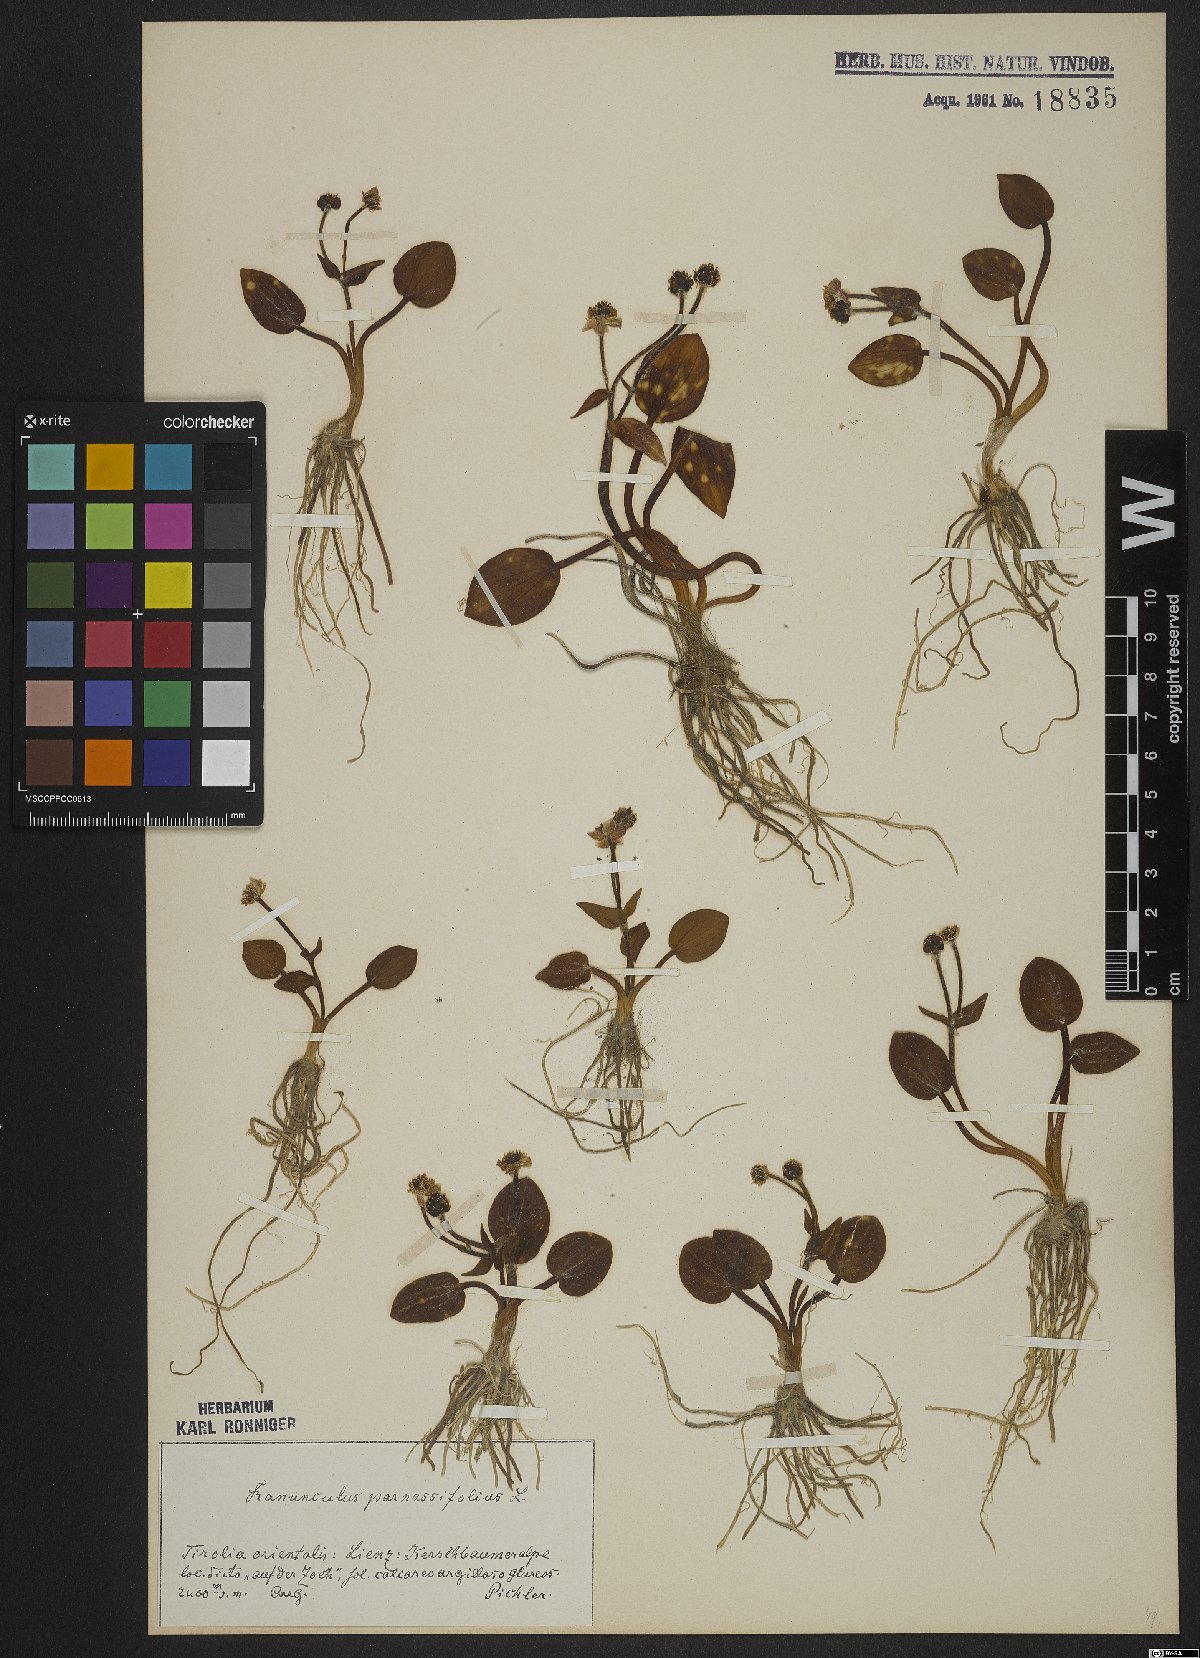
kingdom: Plantae
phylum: Tracheophyta
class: Magnoliopsida
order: Ranunculales
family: Ranunculaceae
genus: Ranunculus
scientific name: Ranunculus parnassiifolius
